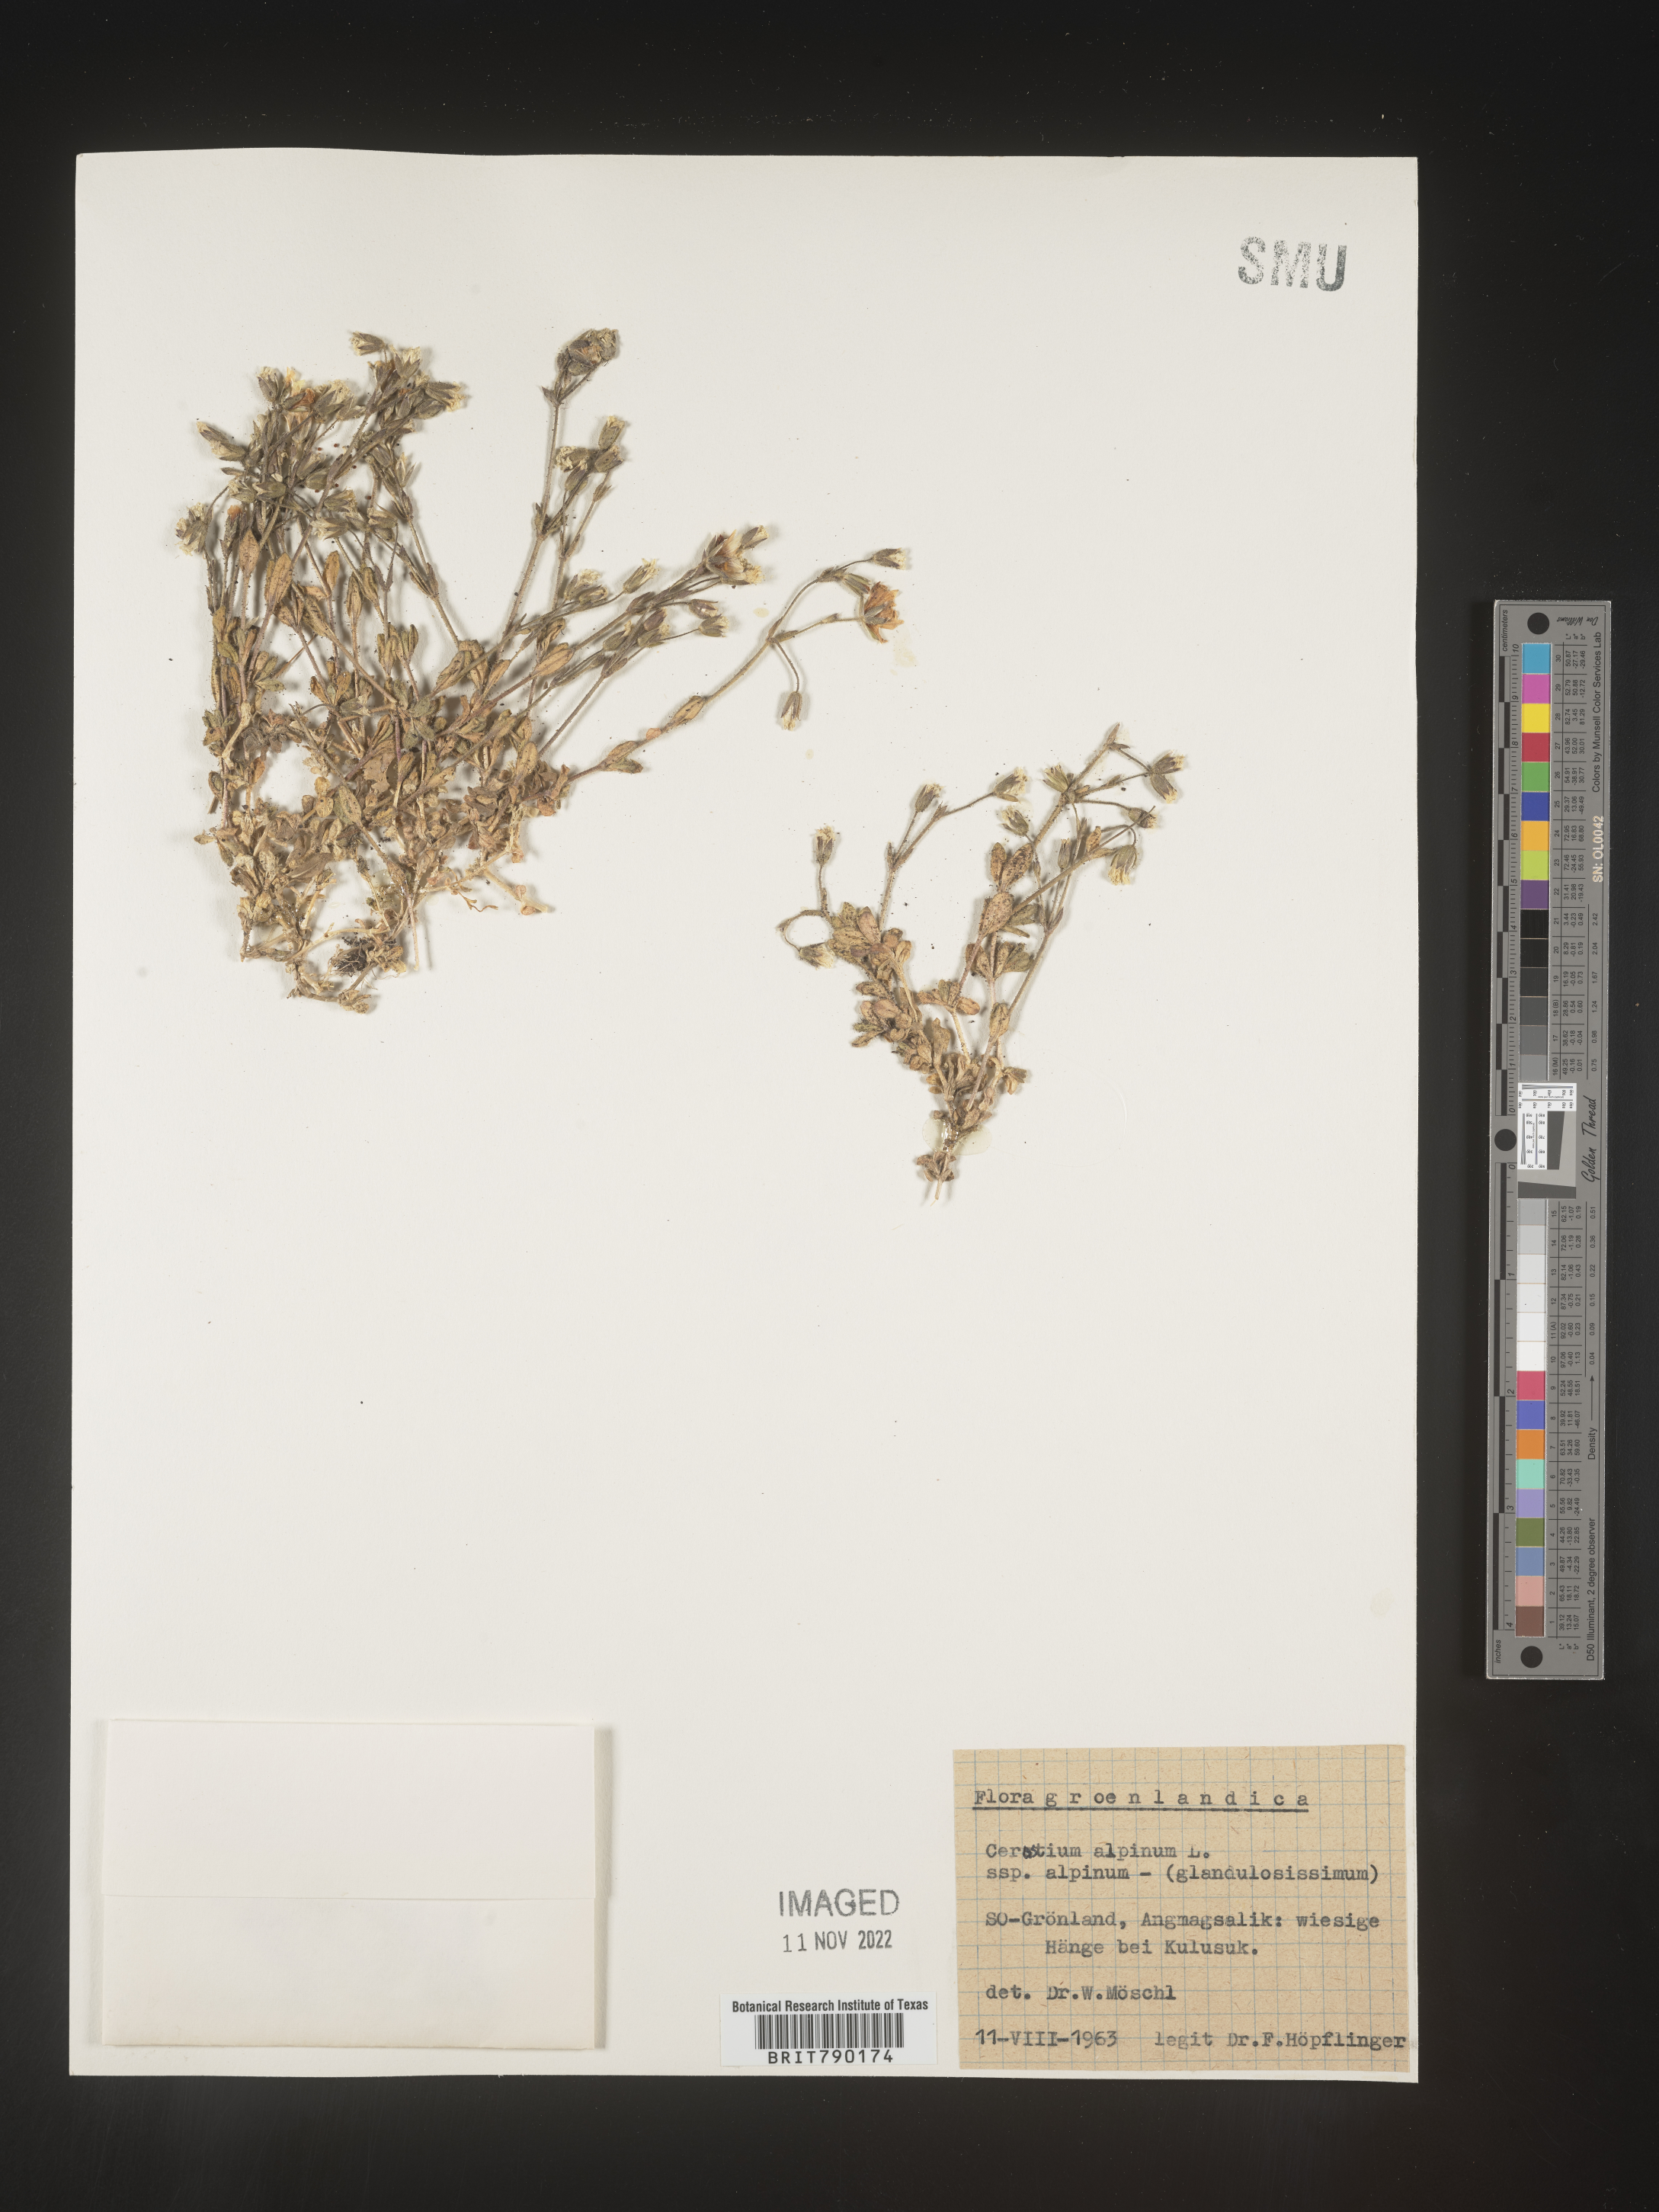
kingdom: Plantae
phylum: Tracheophyta
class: Magnoliopsida
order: Caryophyllales
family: Caryophyllaceae
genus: Cerastium
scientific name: Cerastium
